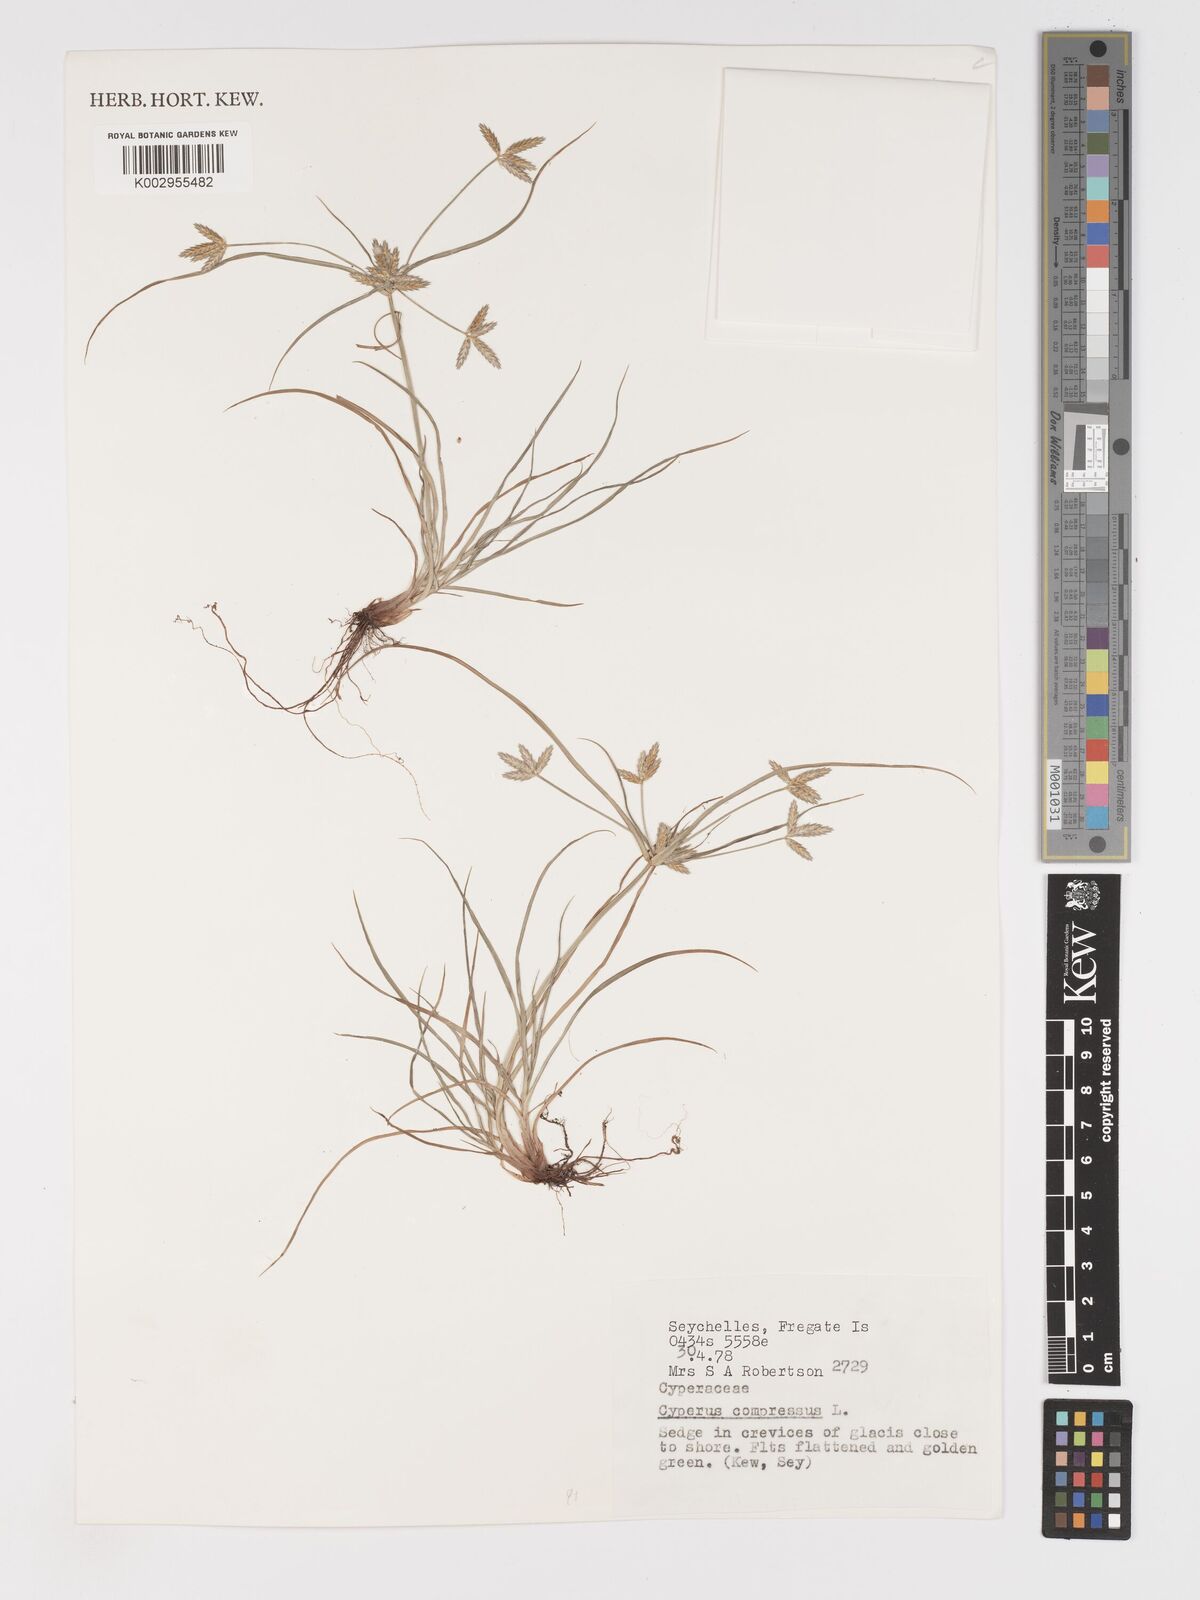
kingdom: Plantae
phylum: Tracheophyta
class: Liliopsida
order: Poales
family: Cyperaceae
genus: Cyperus
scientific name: Cyperus compressus
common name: Poorland flatsedge
